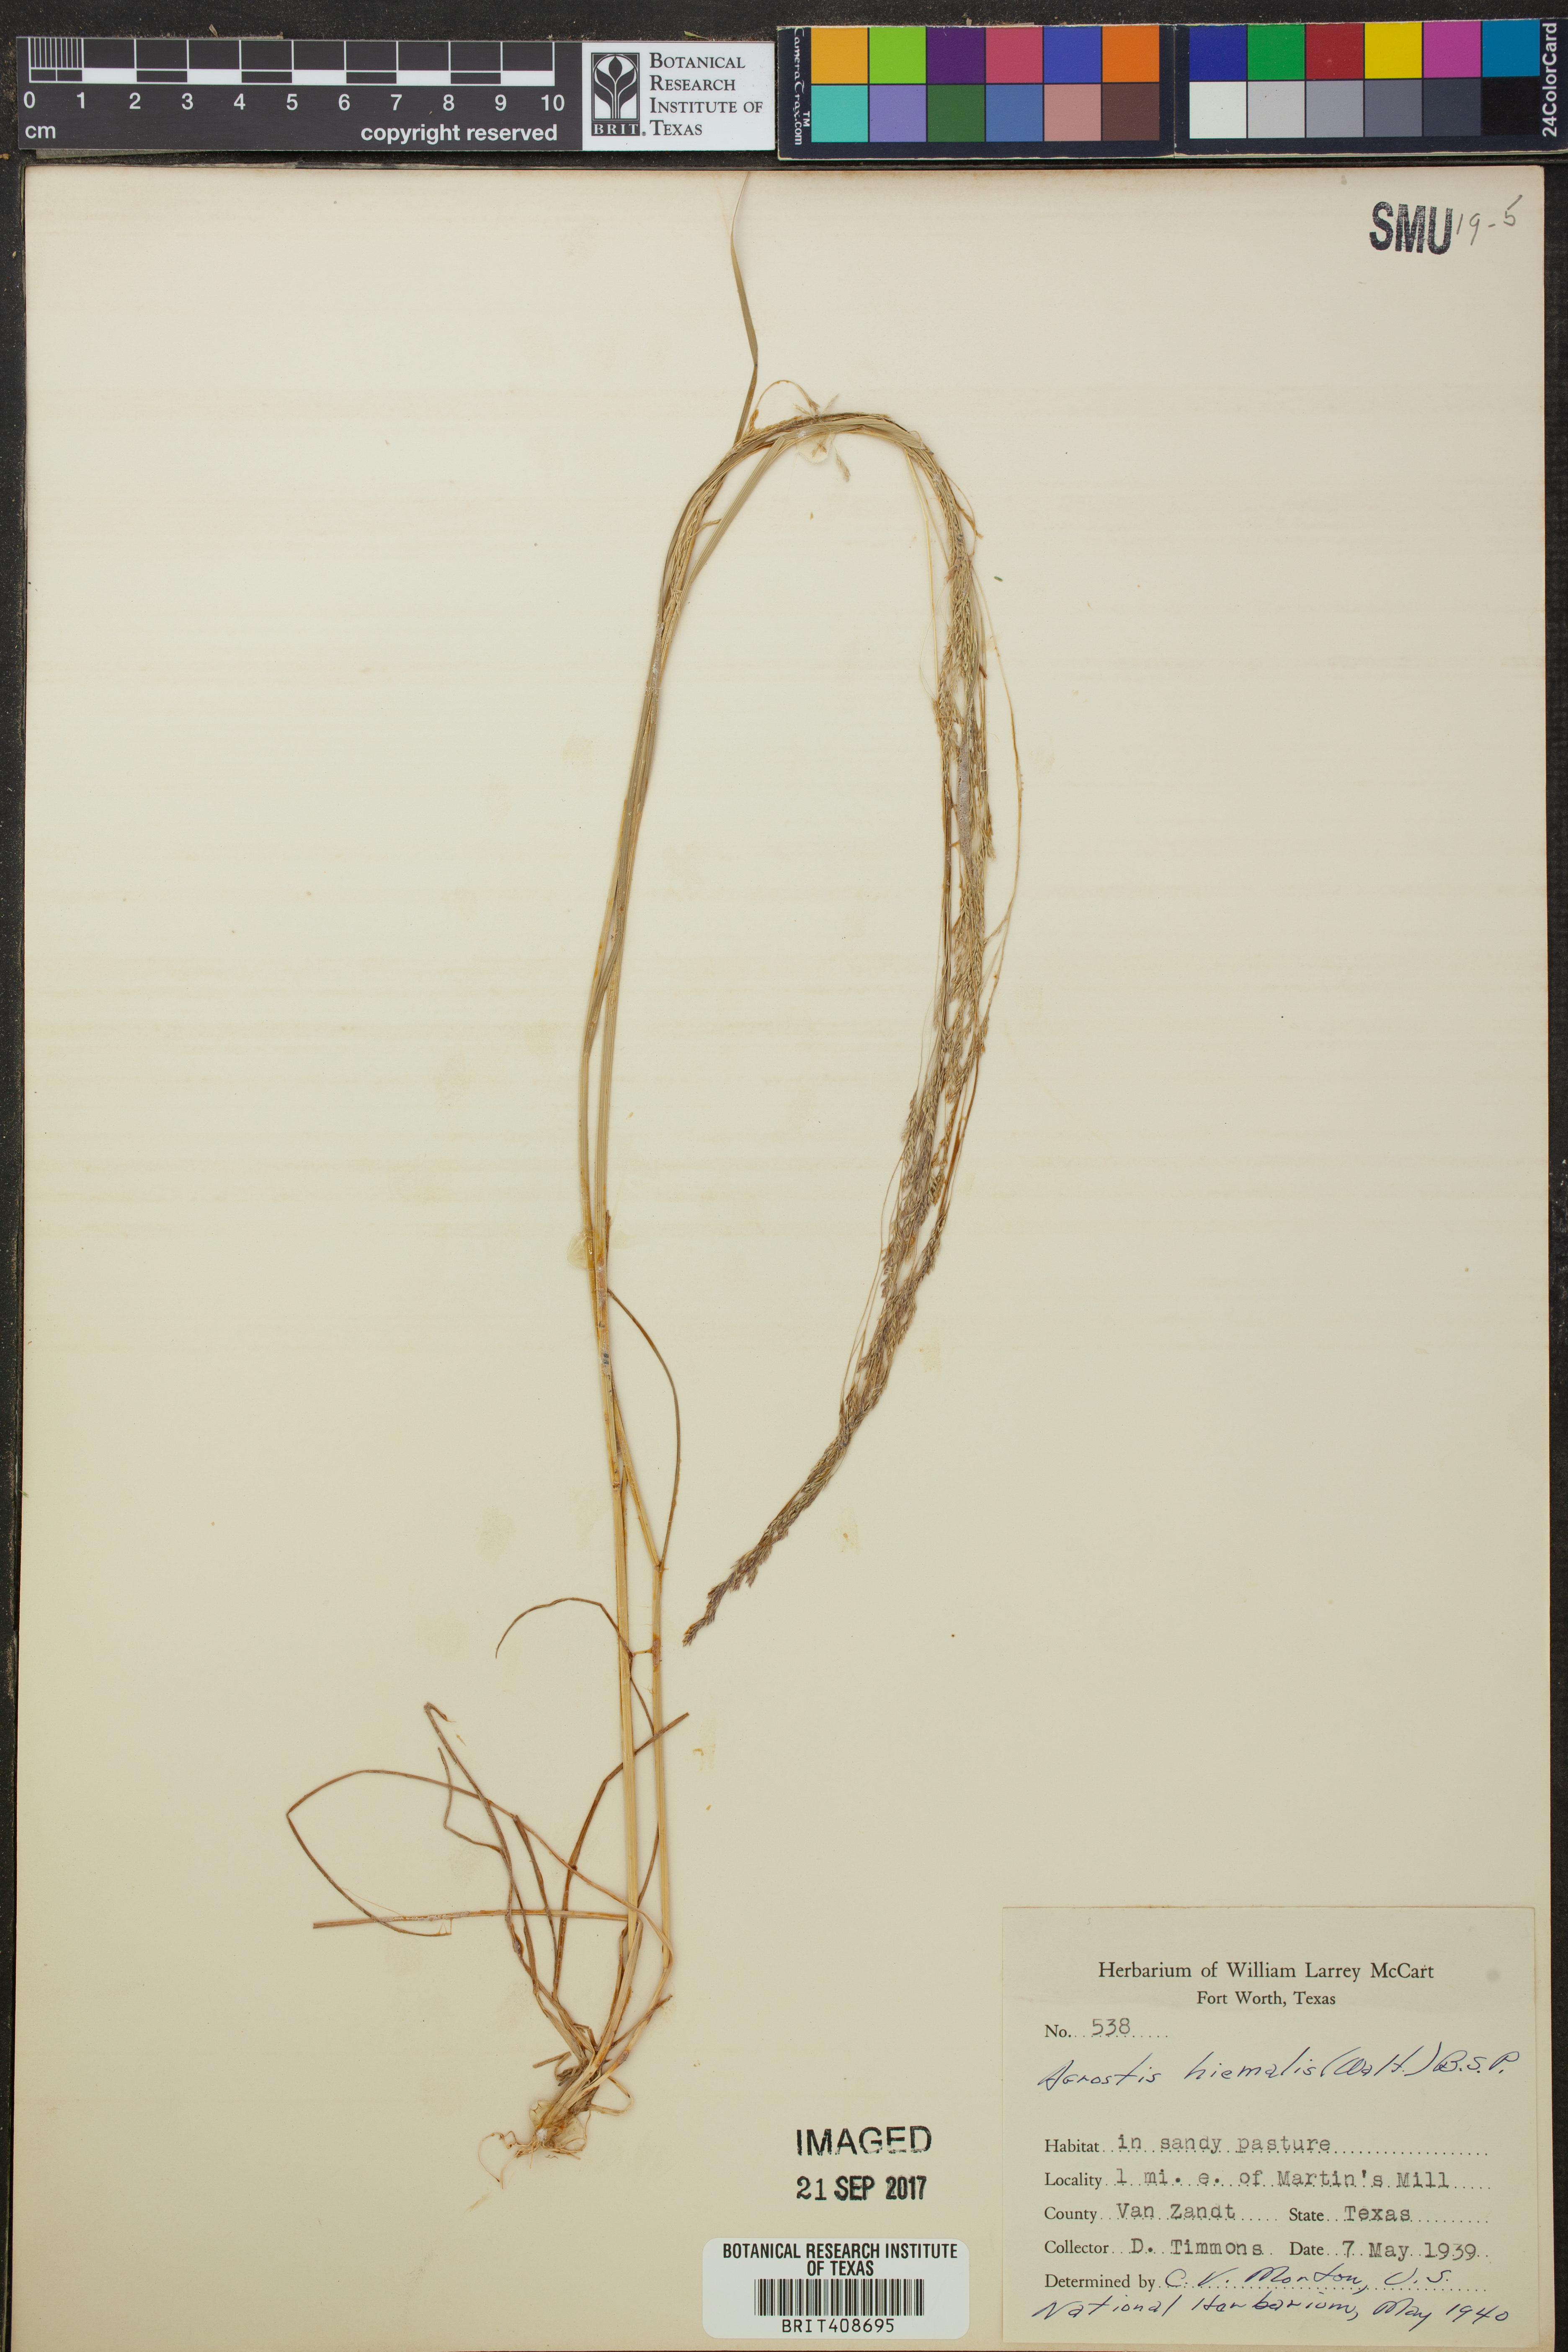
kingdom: Plantae
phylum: Tracheophyta
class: Liliopsida
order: Poales
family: Poaceae
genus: Agrostis
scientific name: Agrostis hyemalis
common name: Small bent
